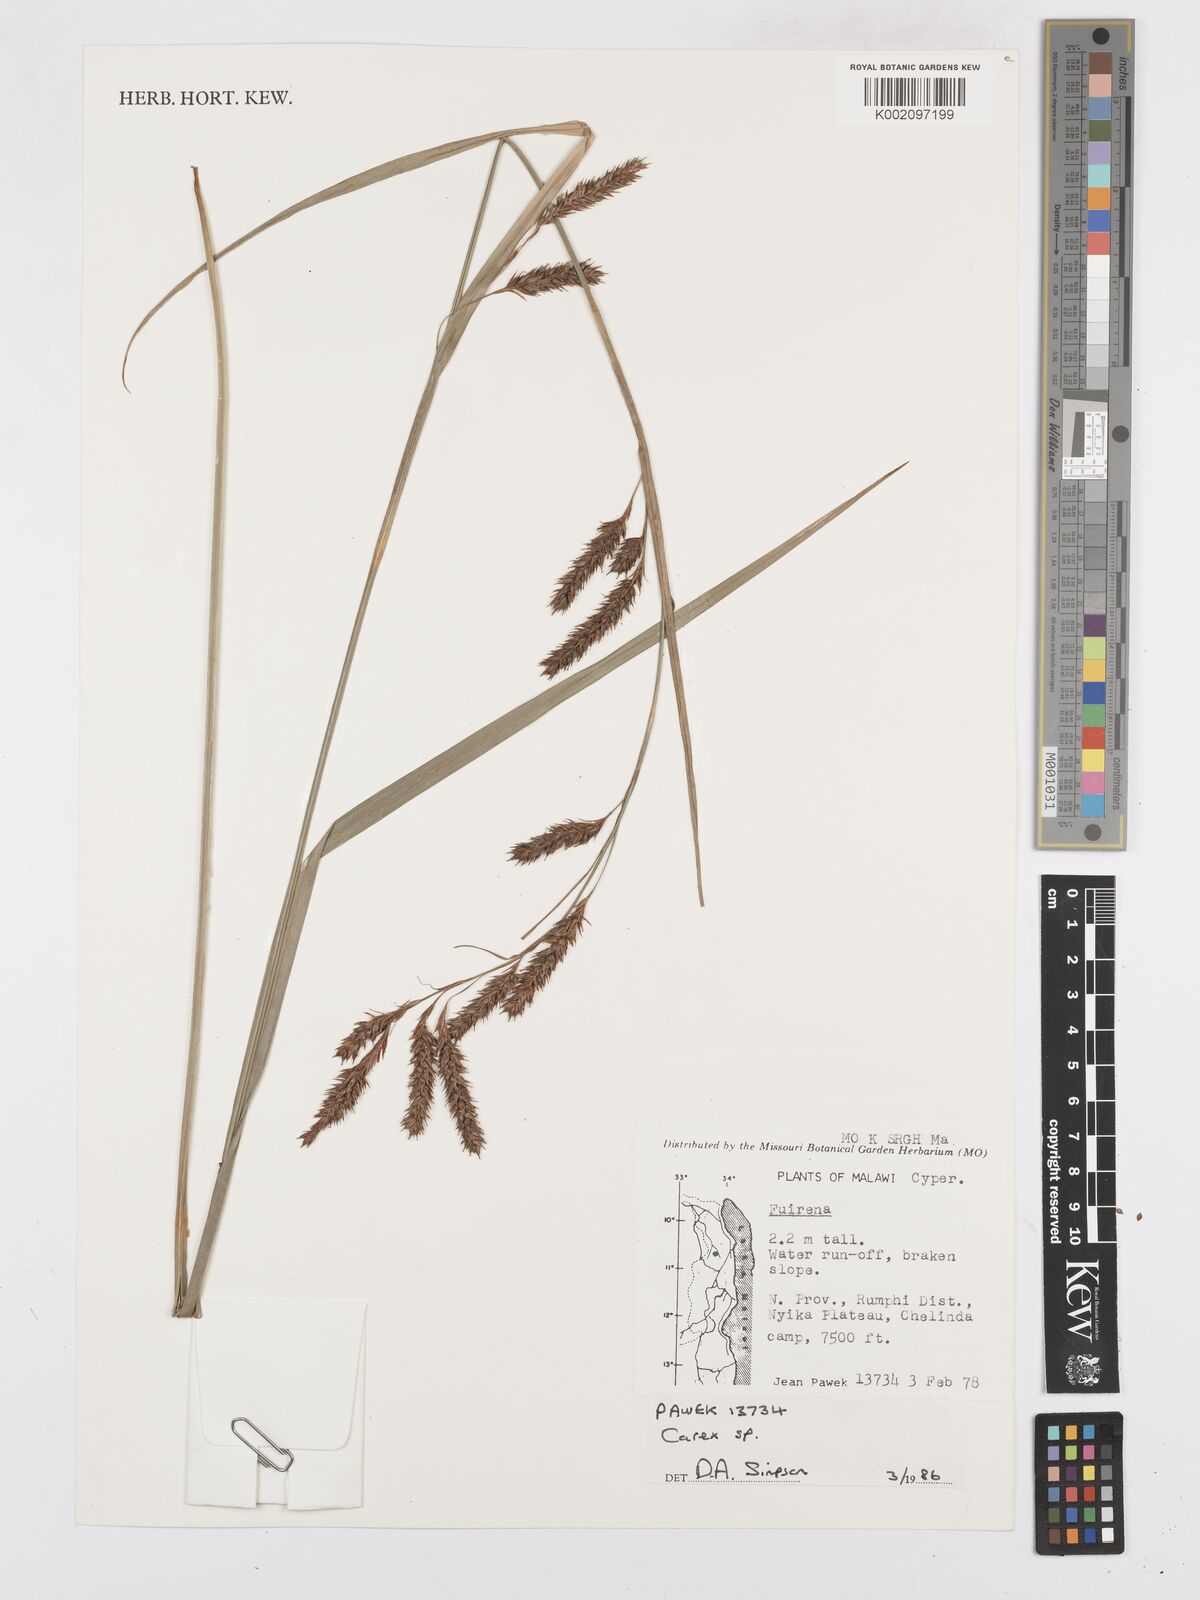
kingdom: Plantae
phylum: Tracheophyta
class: Liliopsida
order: Poales
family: Cyperaceae
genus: Carex
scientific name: Carex
